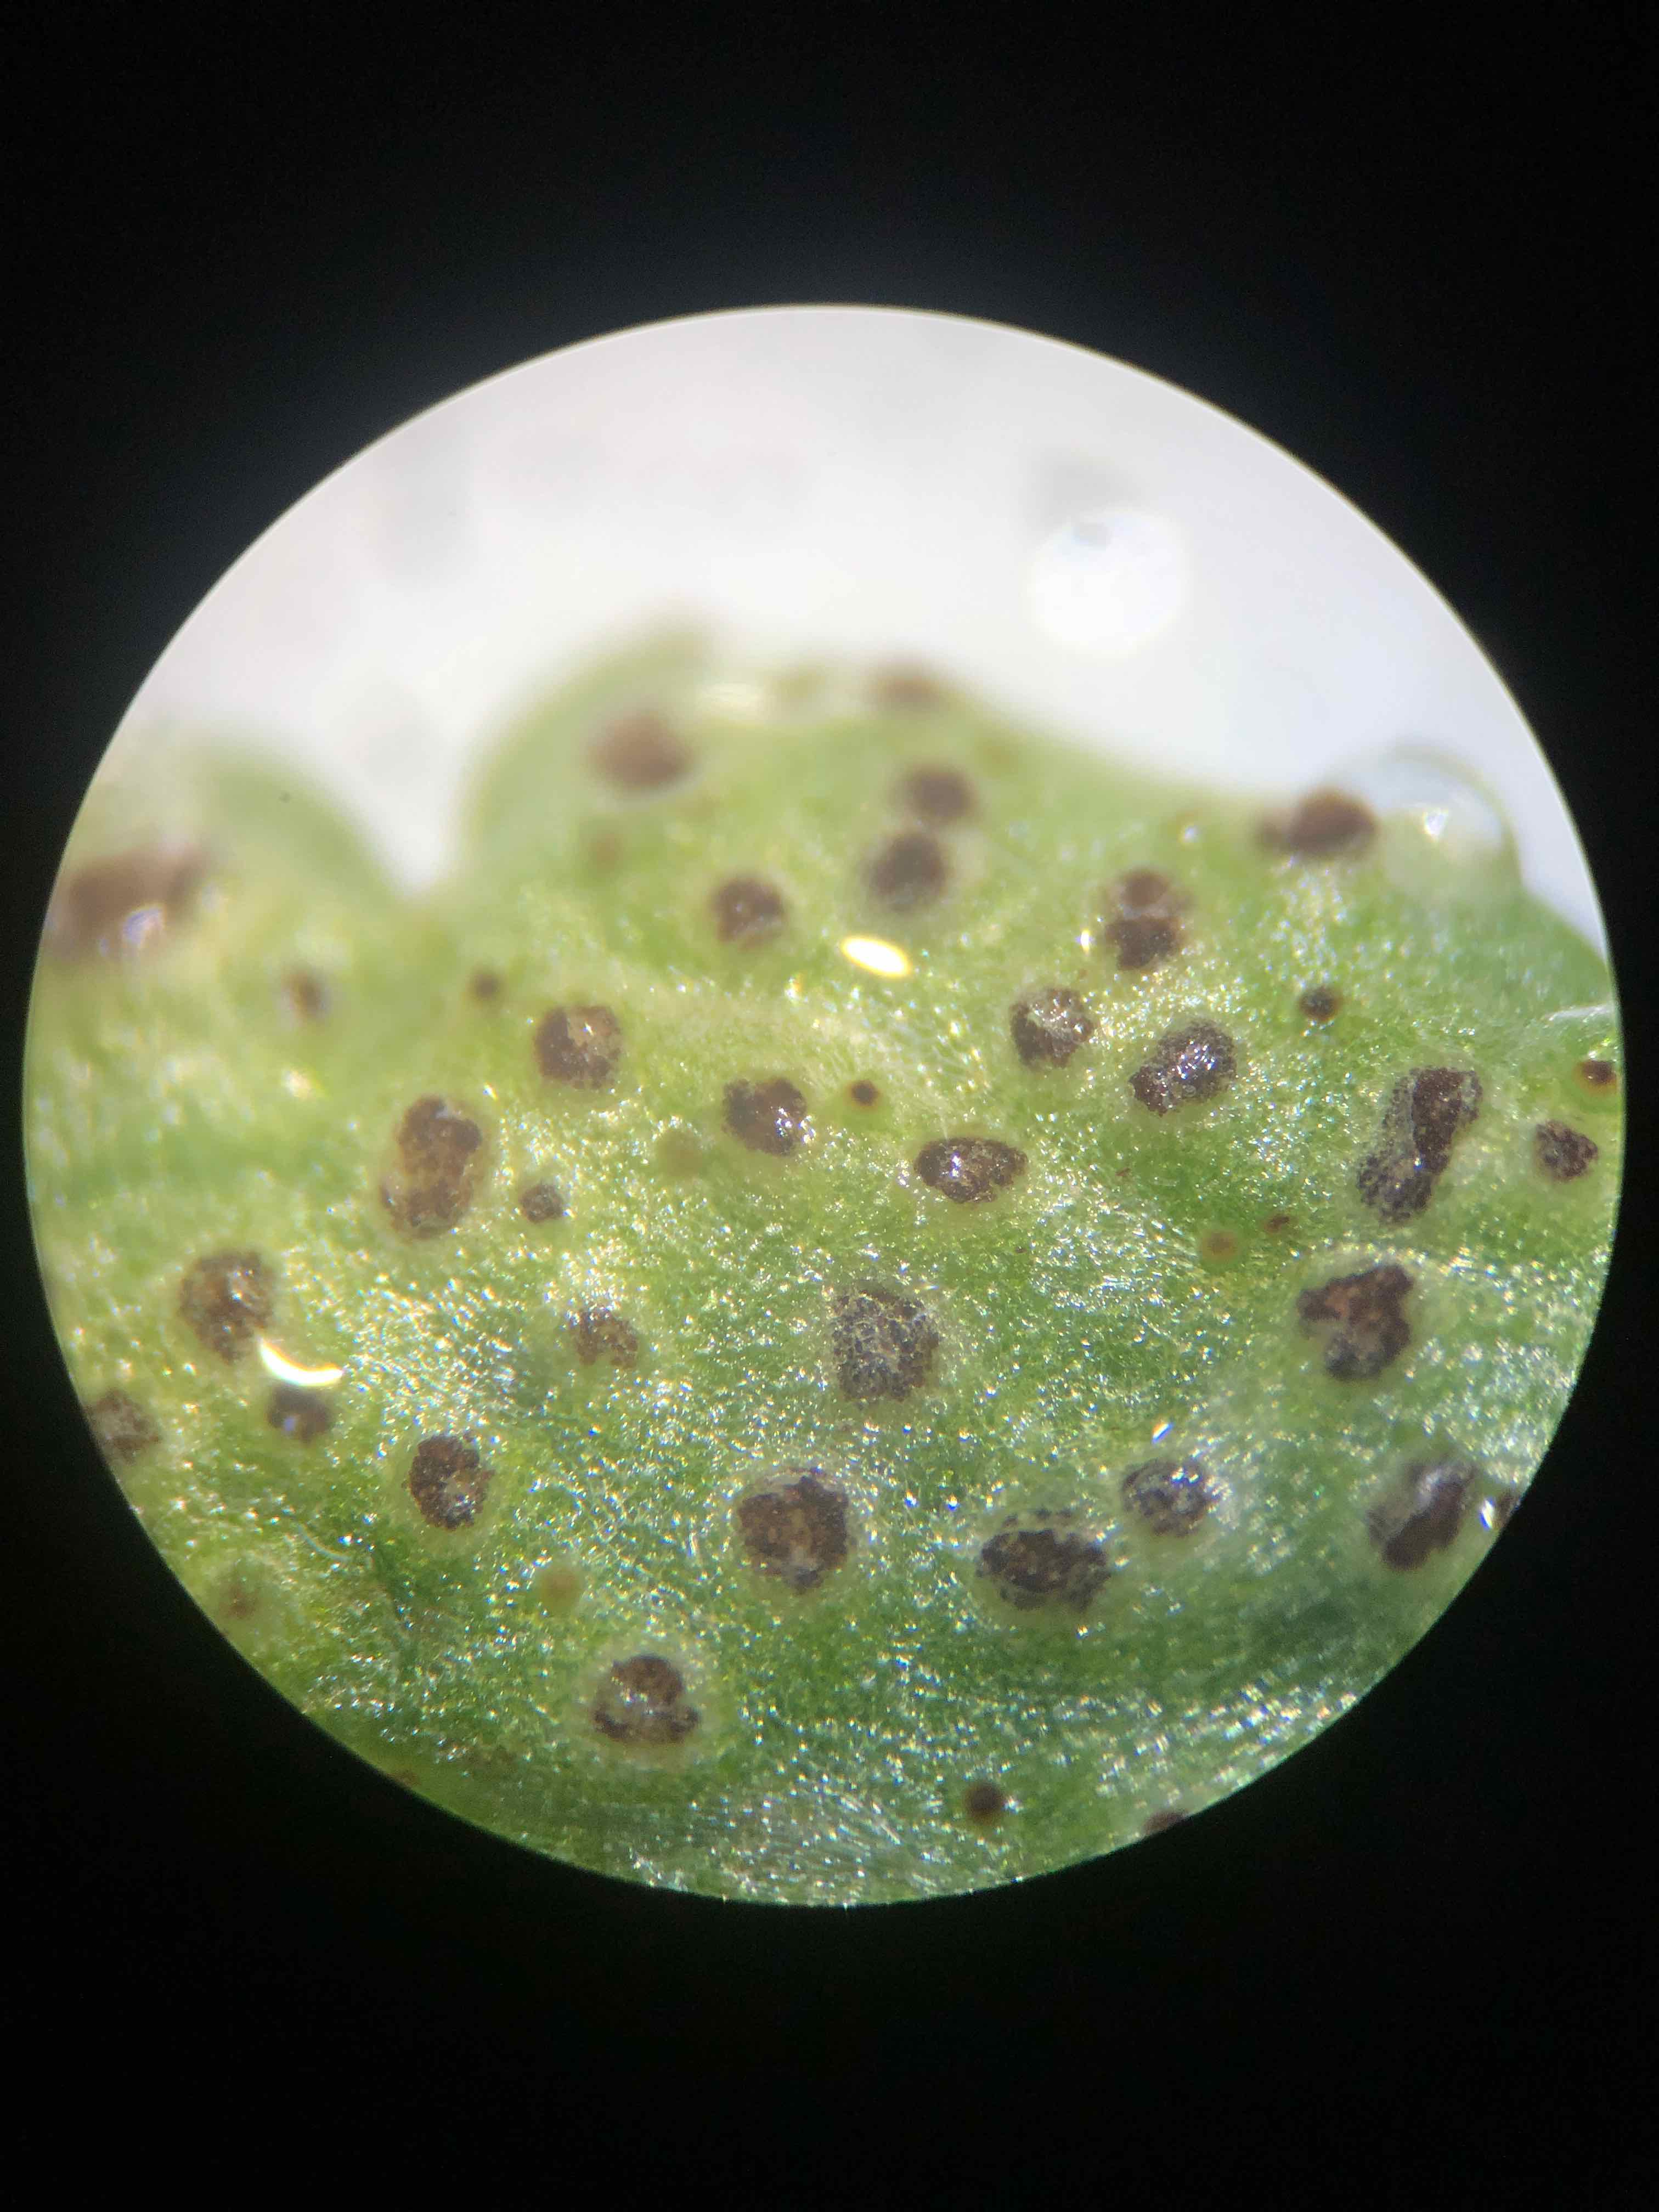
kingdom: Fungi
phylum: Basidiomycota
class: Pucciniomycetes
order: Pucciniales
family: Tranzscheliaceae
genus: Tranzschelia
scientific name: Tranzschelia anemones
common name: anemone-knæksporerust
